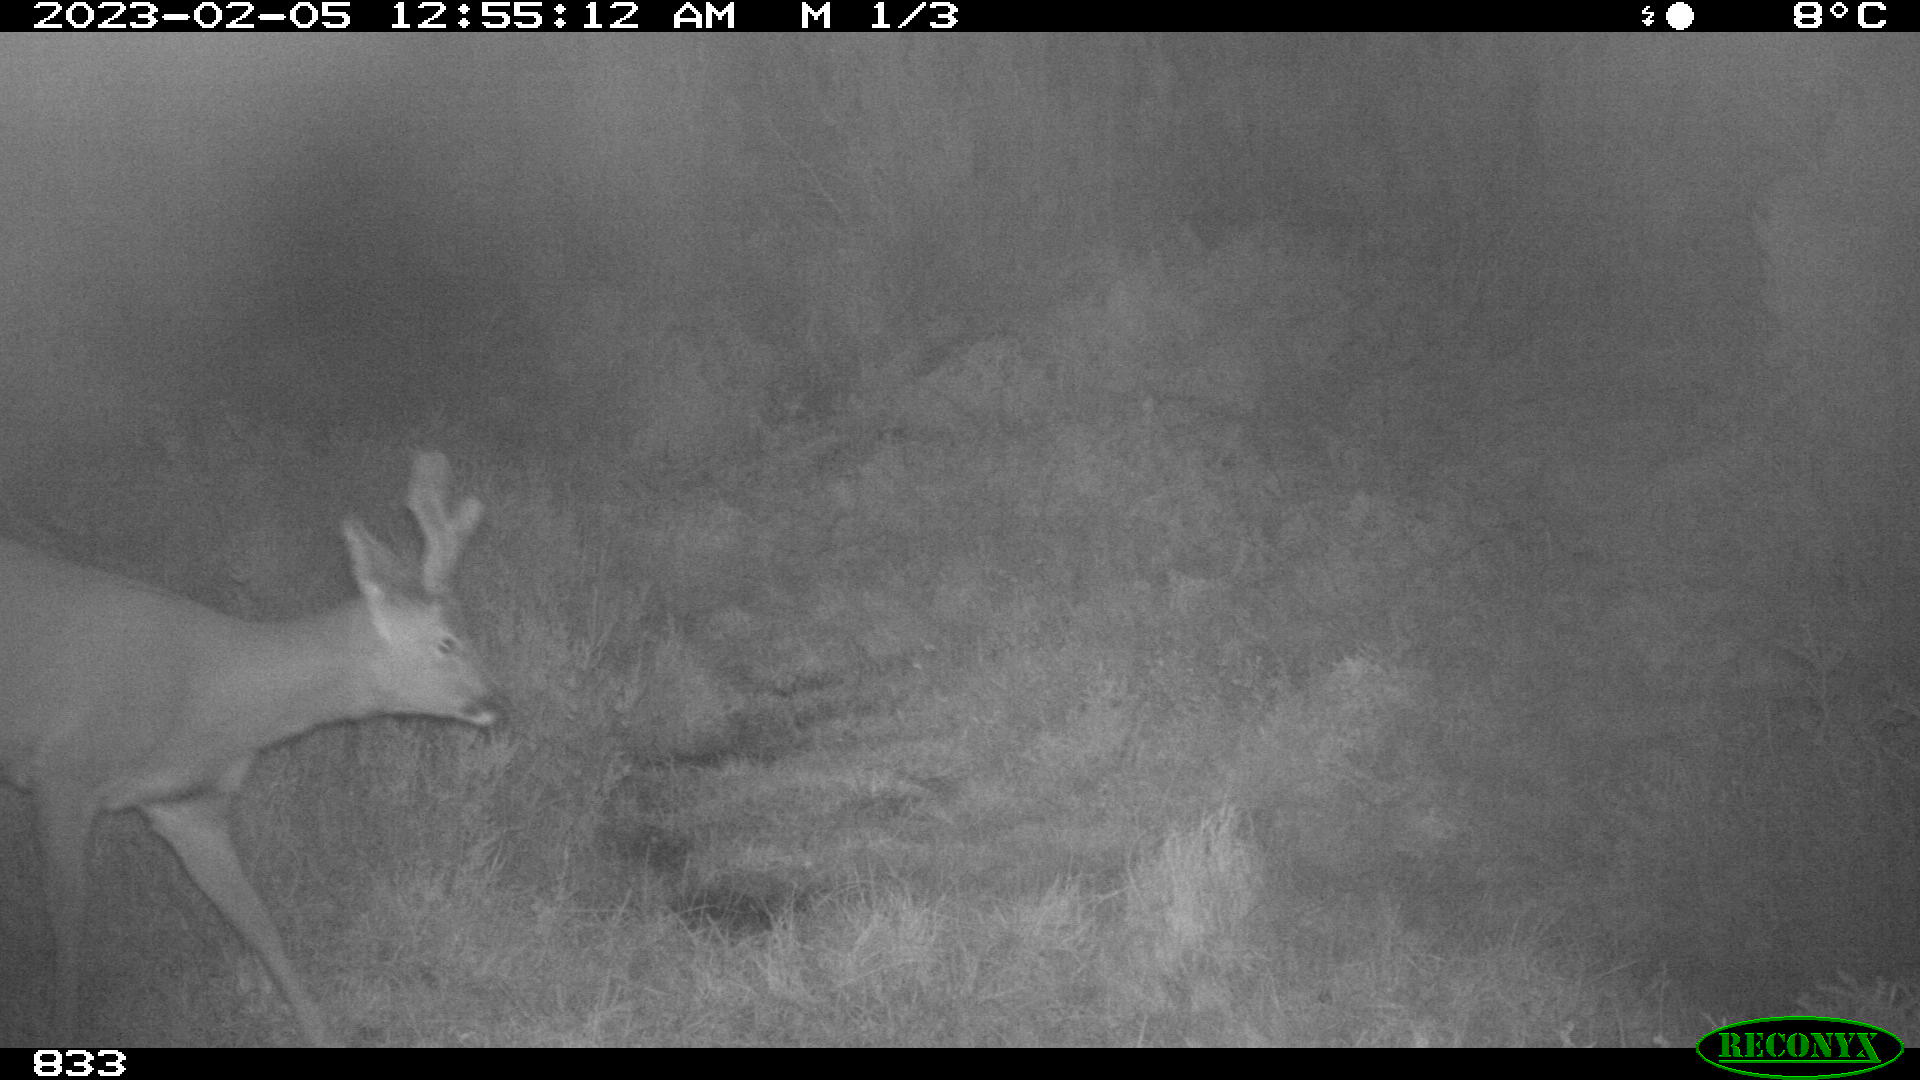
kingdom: Animalia
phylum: Chordata
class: Mammalia
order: Artiodactyla
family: Cervidae
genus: Capreolus
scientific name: Capreolus capreolus
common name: Western roe deer
